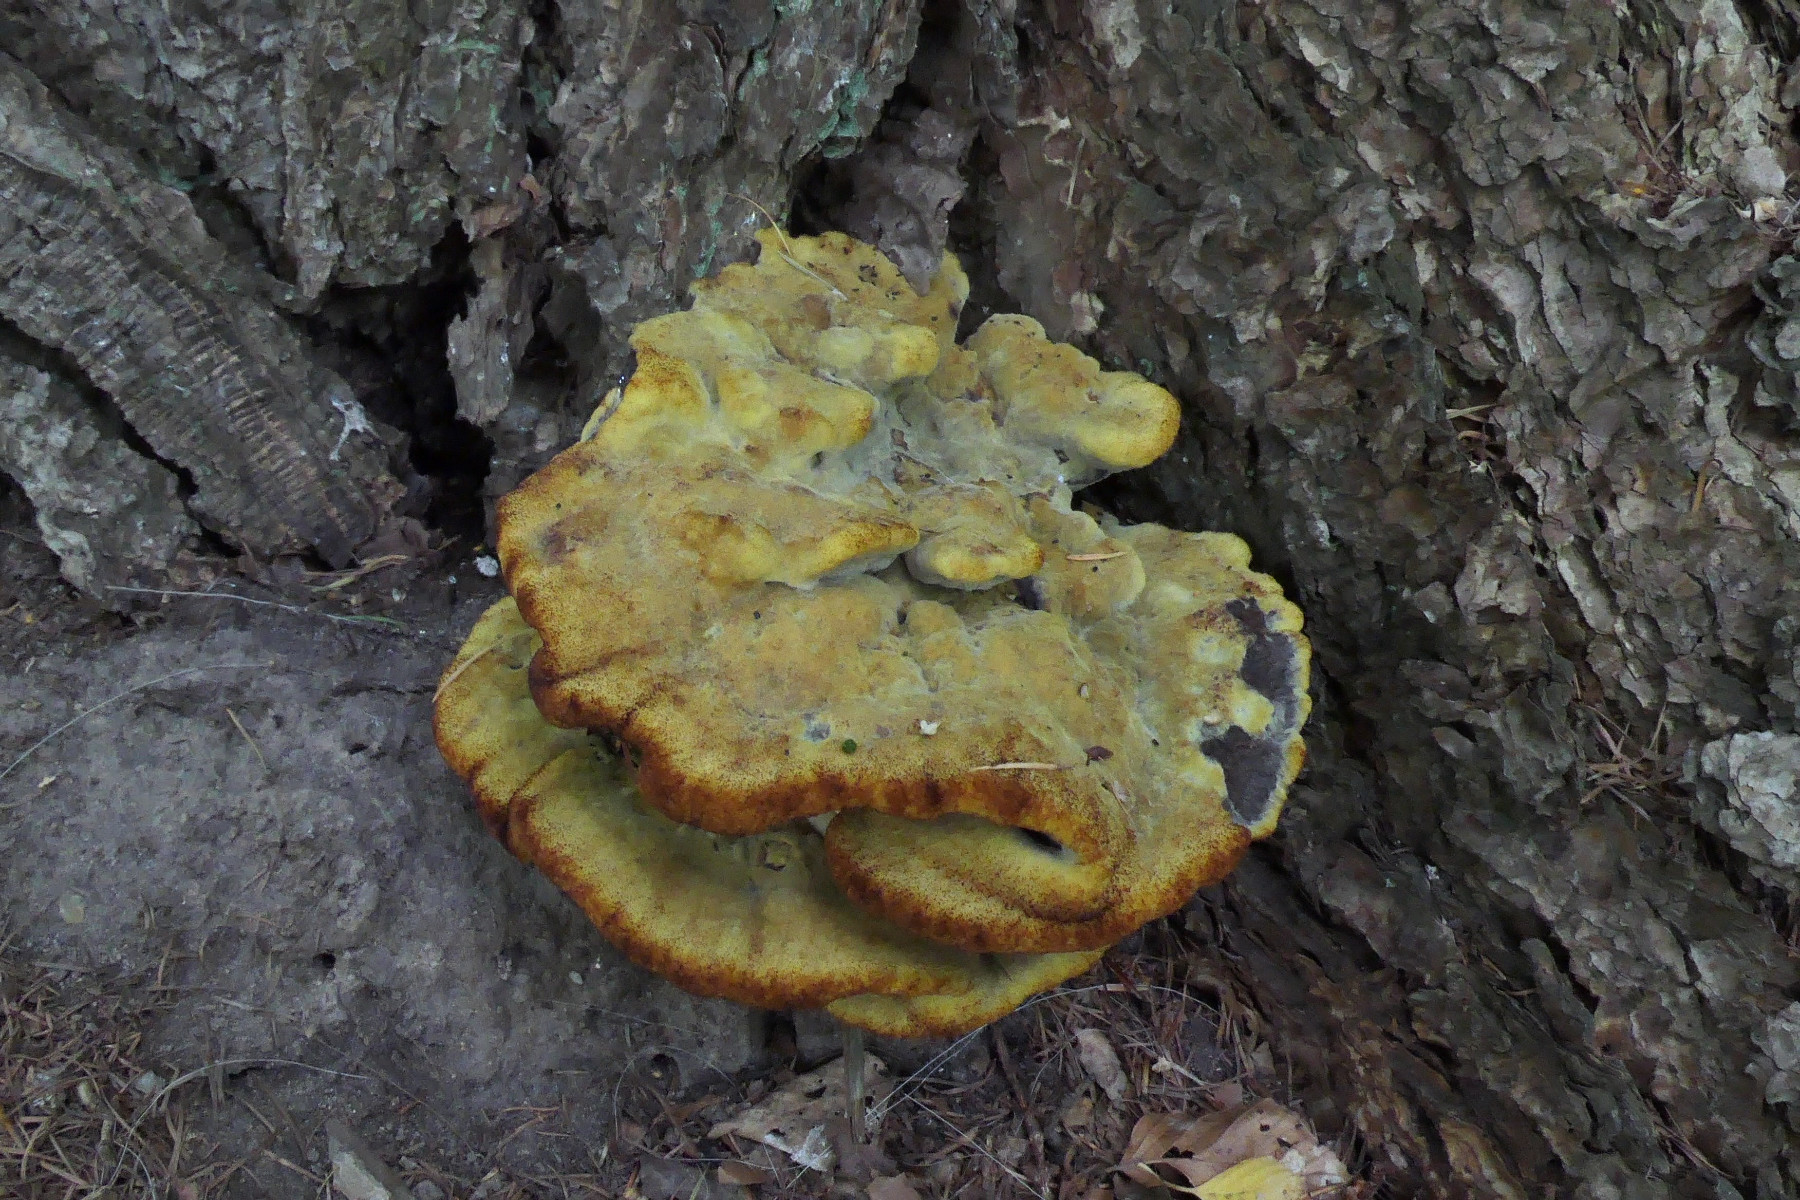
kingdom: Fungi
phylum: Basidiomycota
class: Agaricomycetes
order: Polyporales
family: Laetiporaceae
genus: Phaeolus
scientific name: Phaeolus schweinitzii
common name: brunporesvamp
